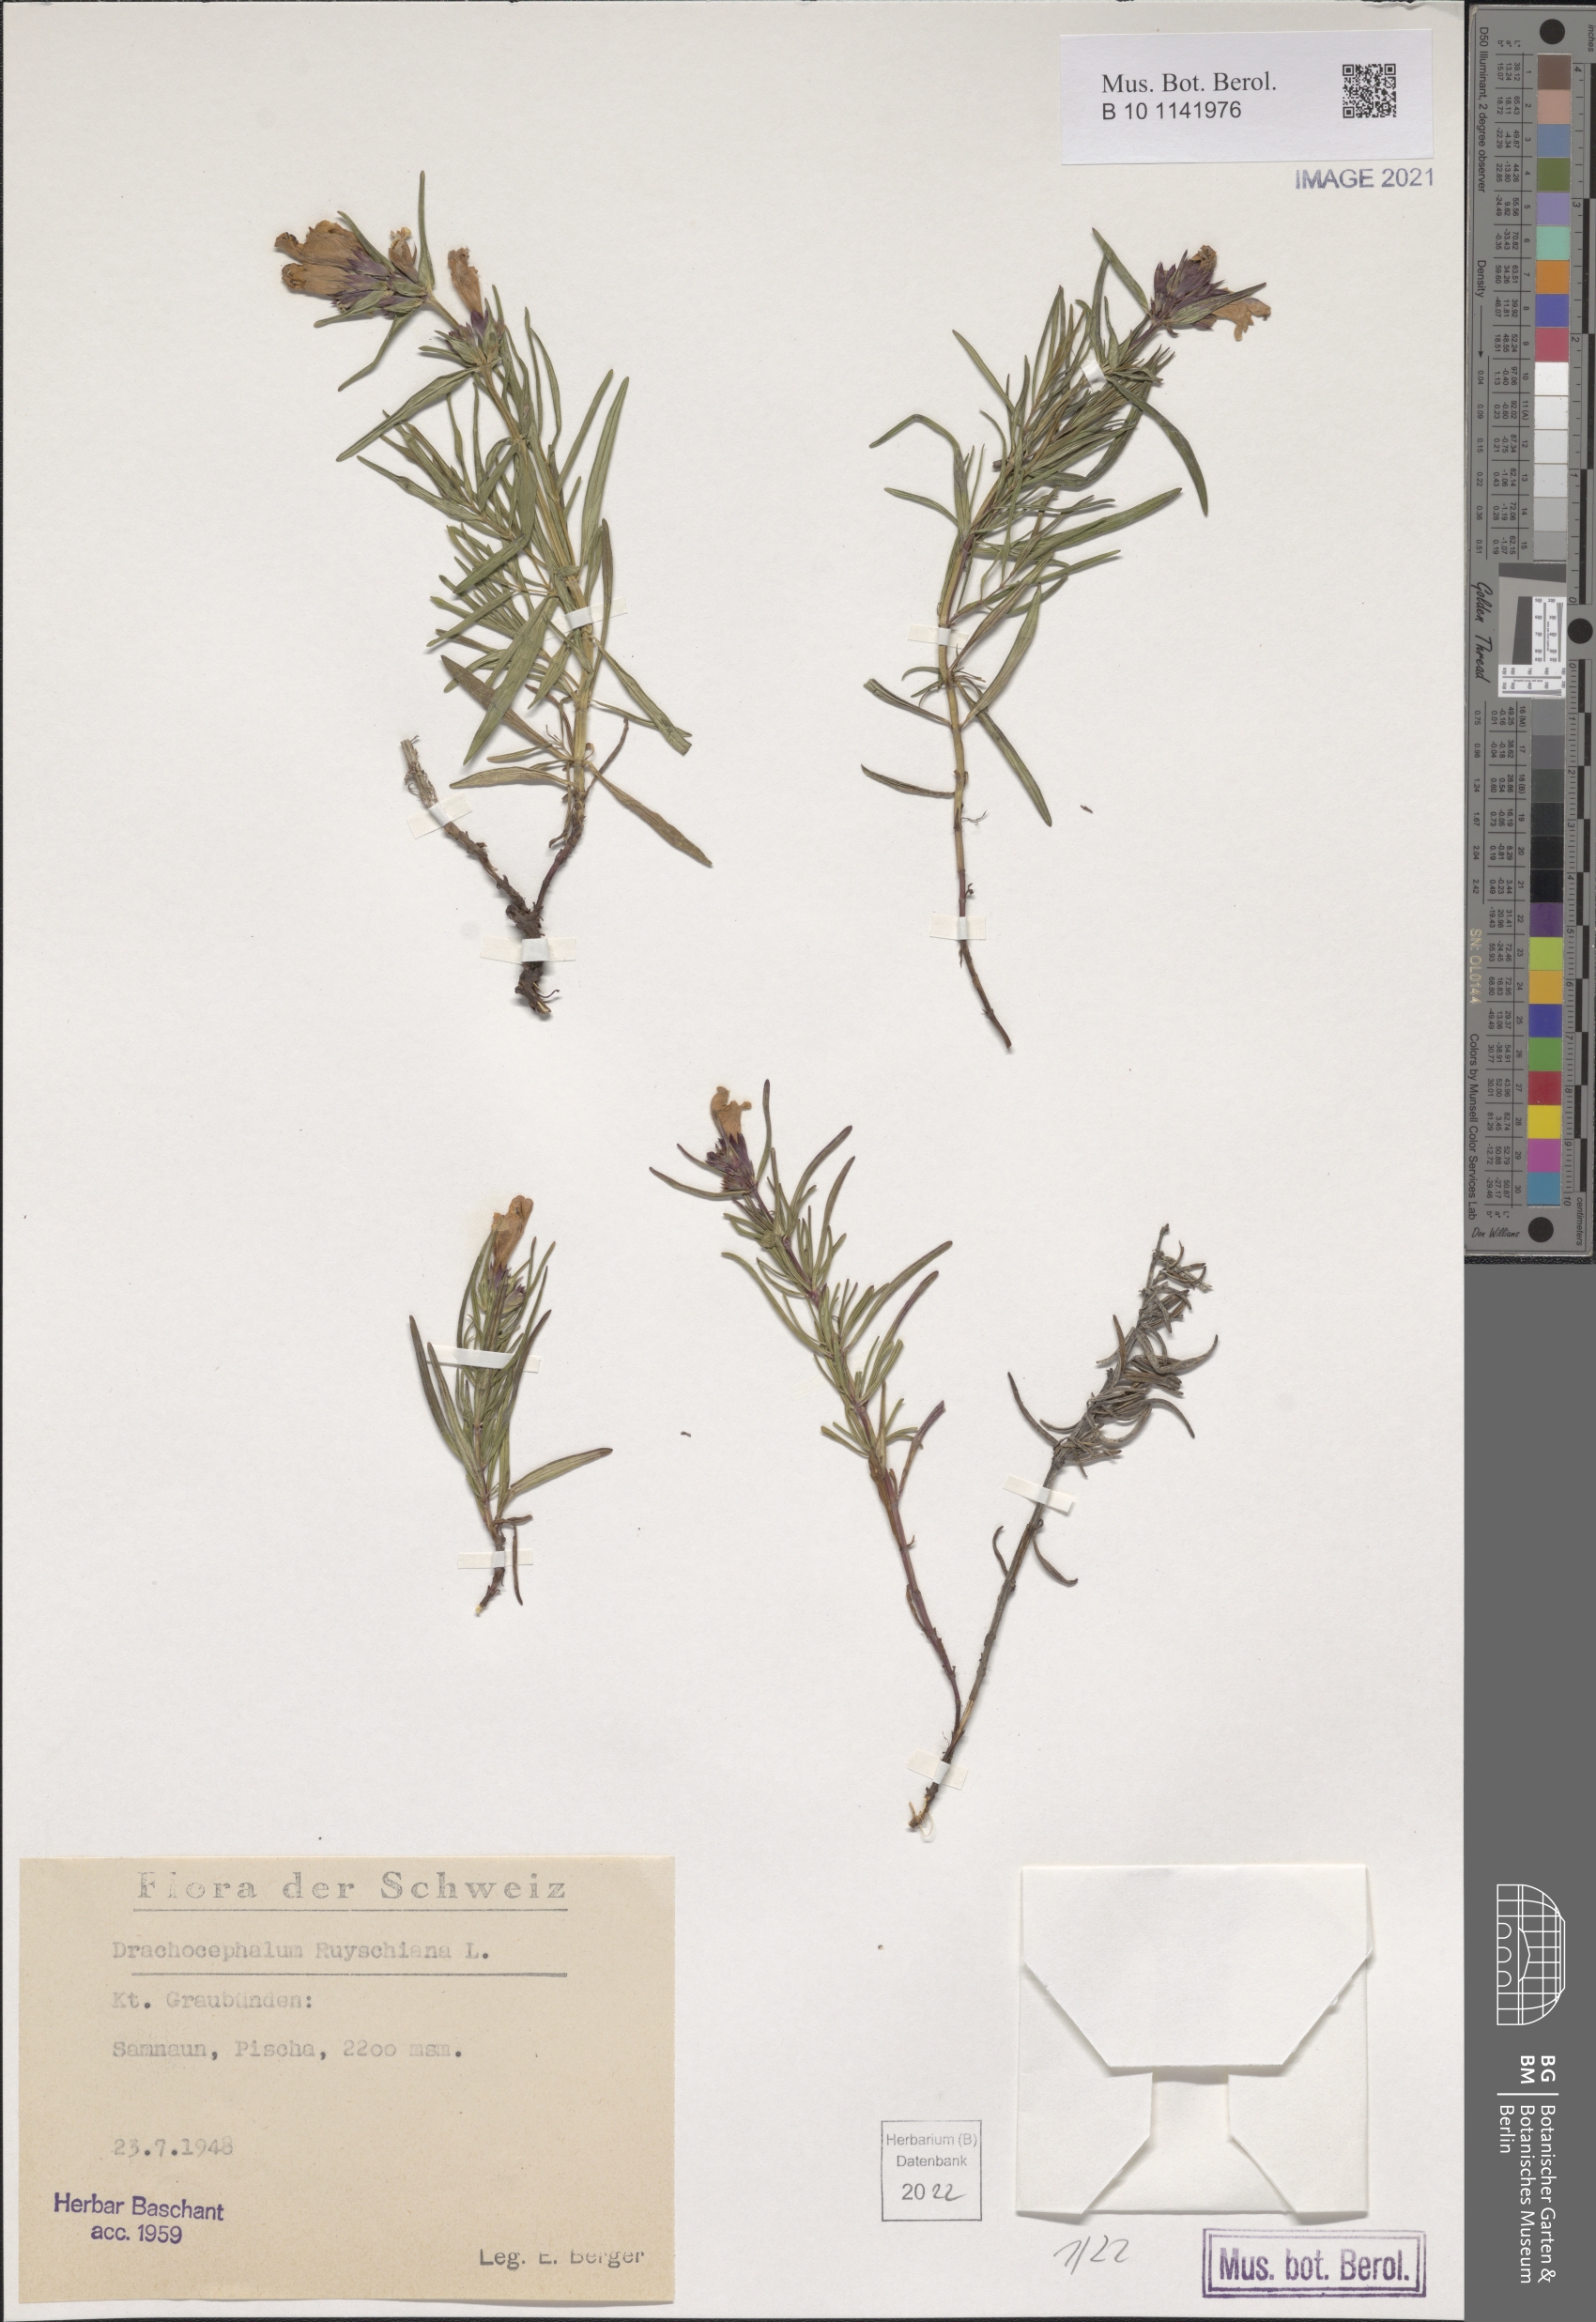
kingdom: Plantae
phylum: Tracheophyta
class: Magnoliopsida
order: Lamiales
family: Lamiaceae
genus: Dracocephalum
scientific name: Dracocephalum ruyschiana
